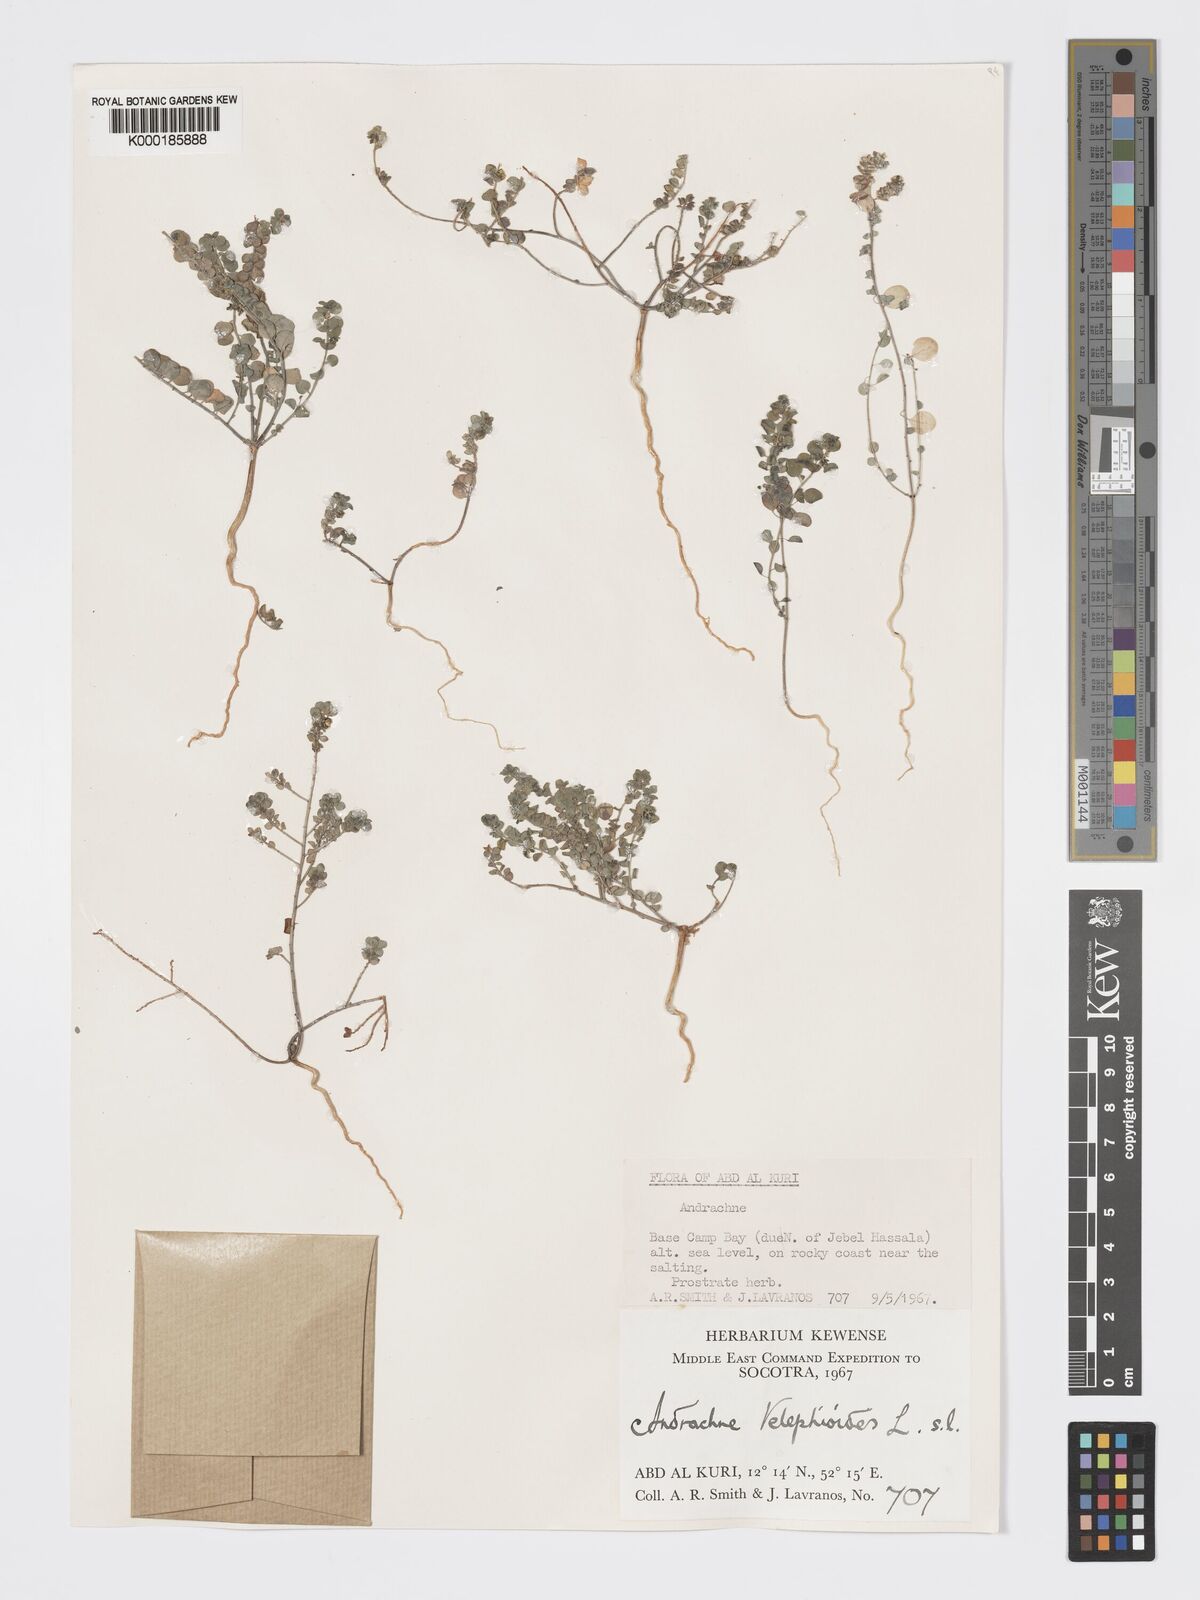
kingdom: Plantae
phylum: Tracheophyta
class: Magnoliopsida
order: Malpighiales
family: Phyllanthaceae
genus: Andrachne
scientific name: Andrachne telephioides
